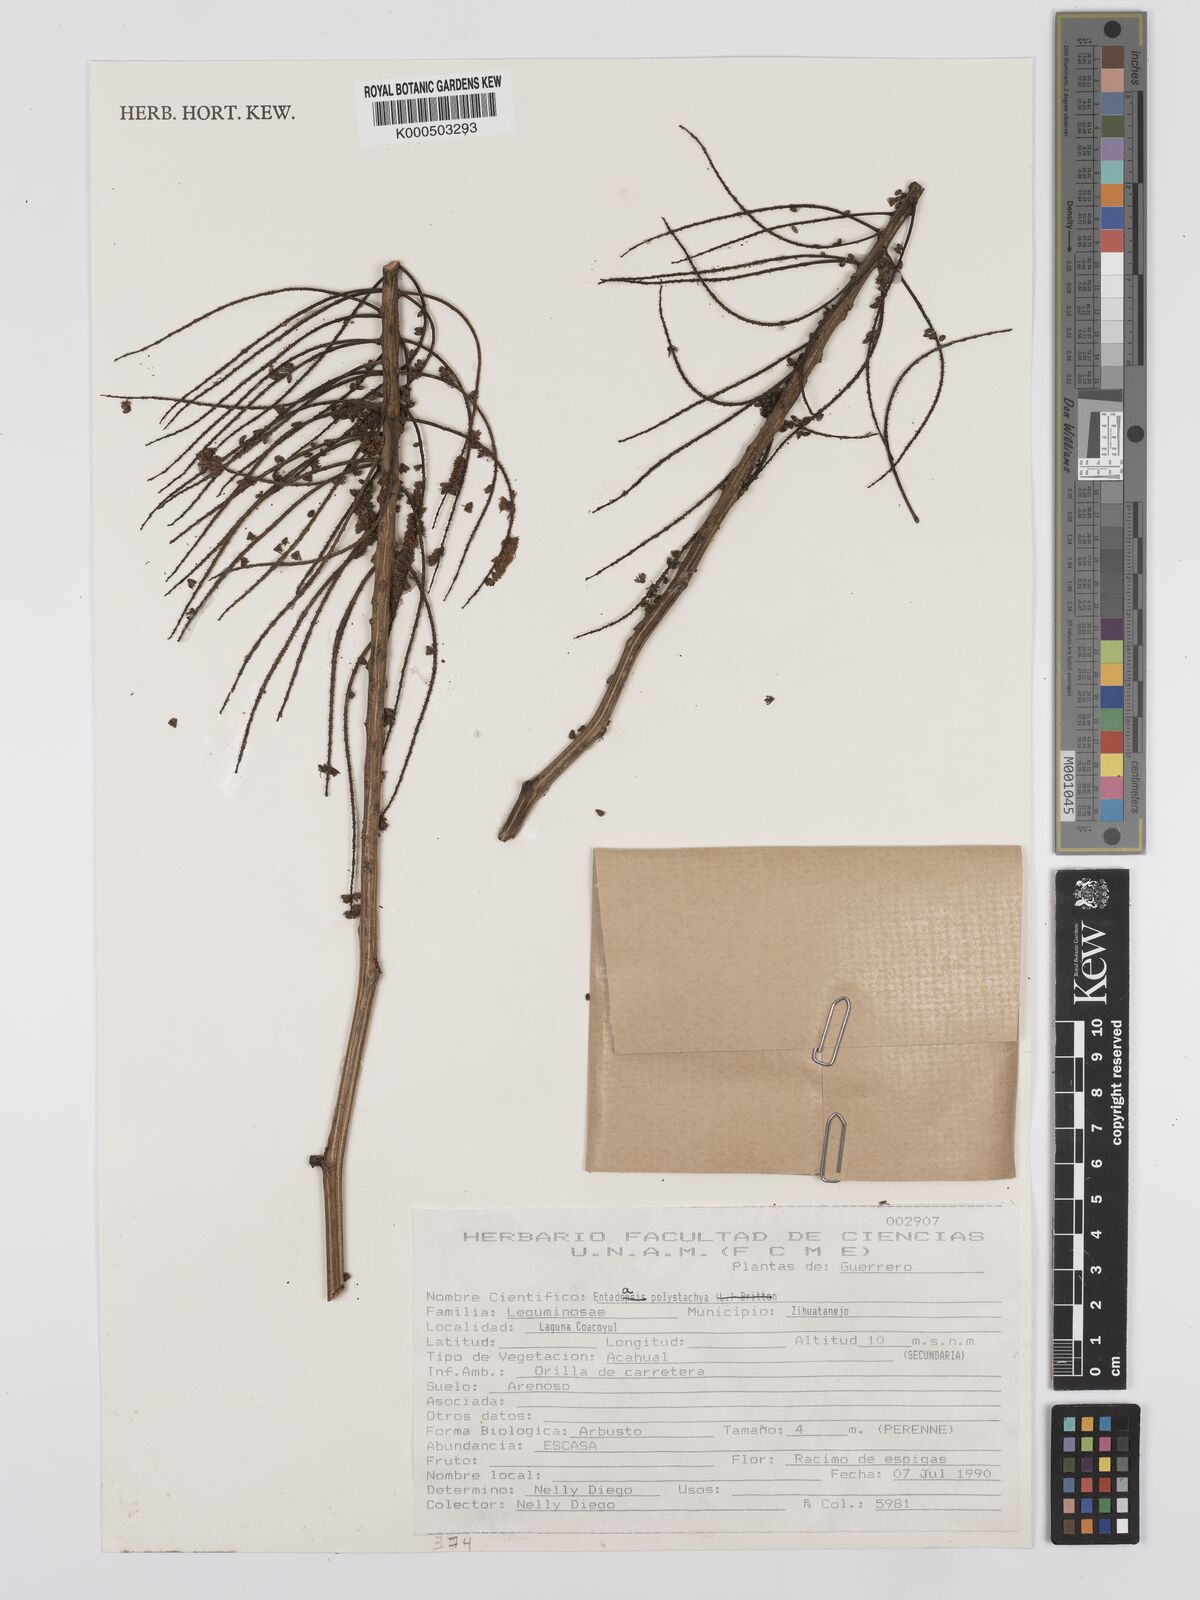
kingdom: Plantae
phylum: Tracheophyta
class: Magnoliopsida
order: Fabales
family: Fabaceae
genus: Entada
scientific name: Entada polystachya
